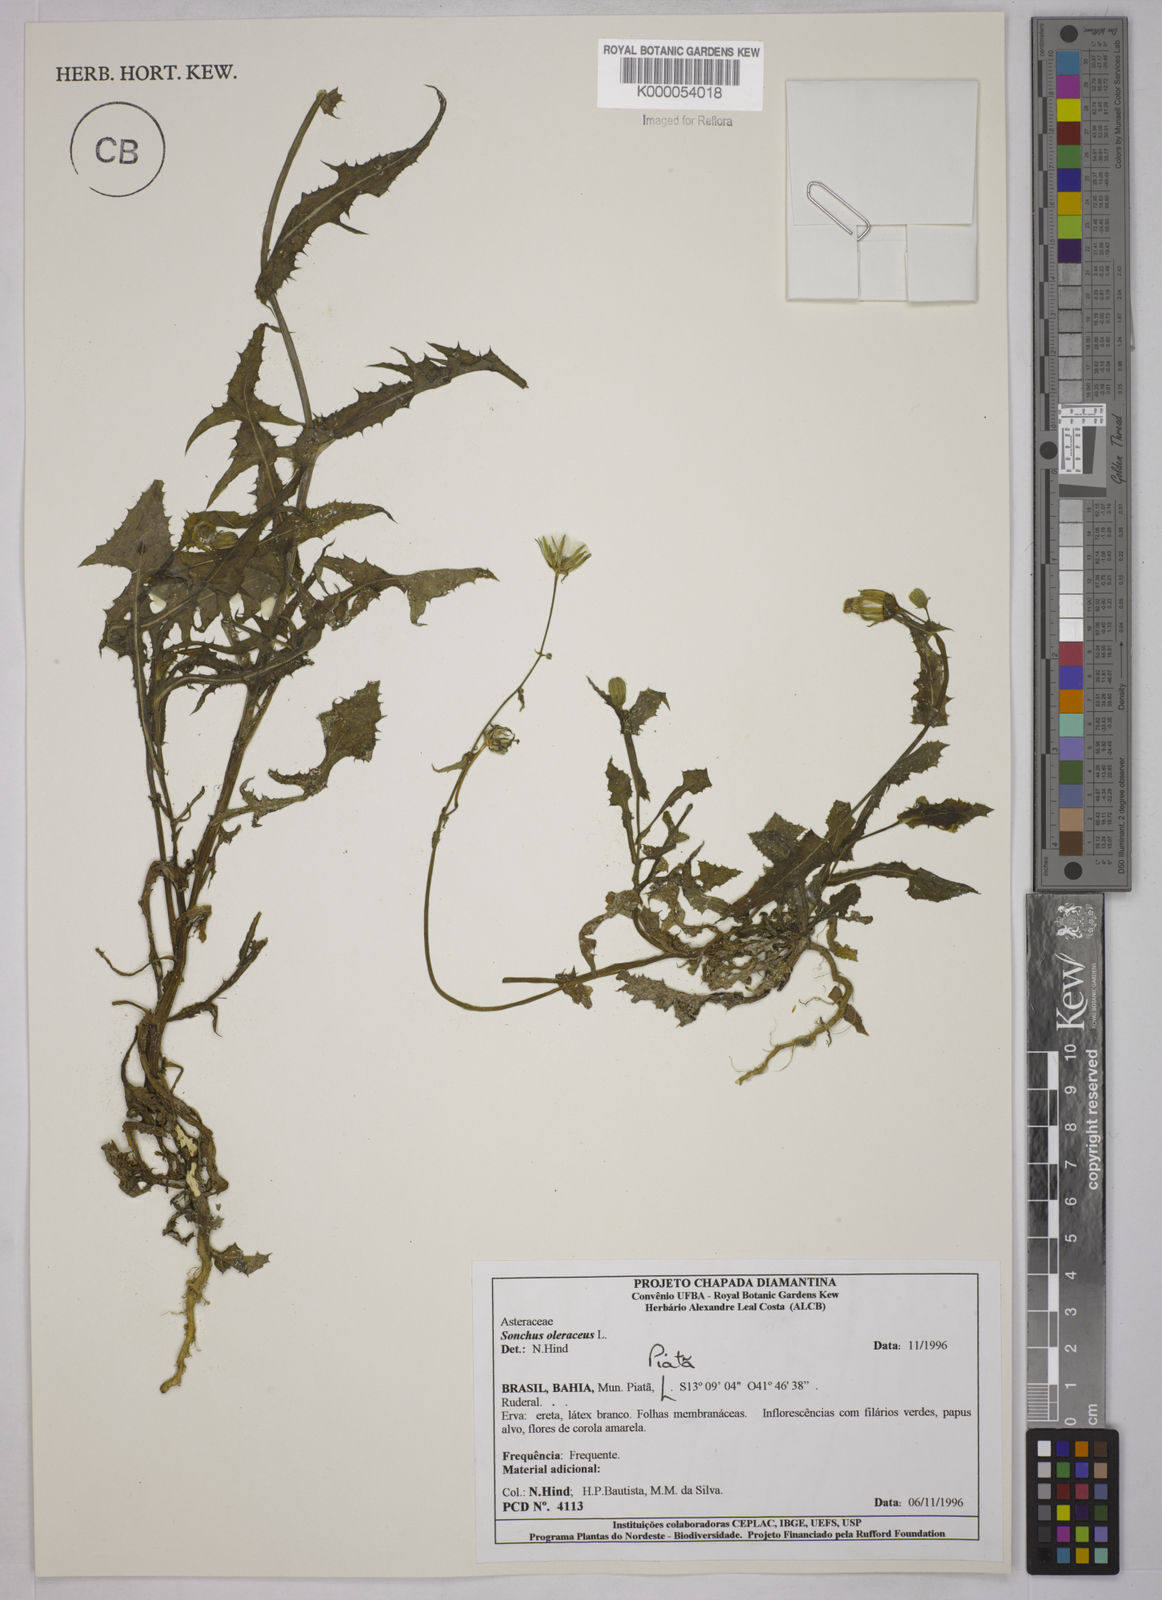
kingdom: Plantae
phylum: Tracheophyta
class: Magnoliopsida
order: Asterales
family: Asteraceae
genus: Sonchus
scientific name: Sonchus oleraceus
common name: Common sowthistle
